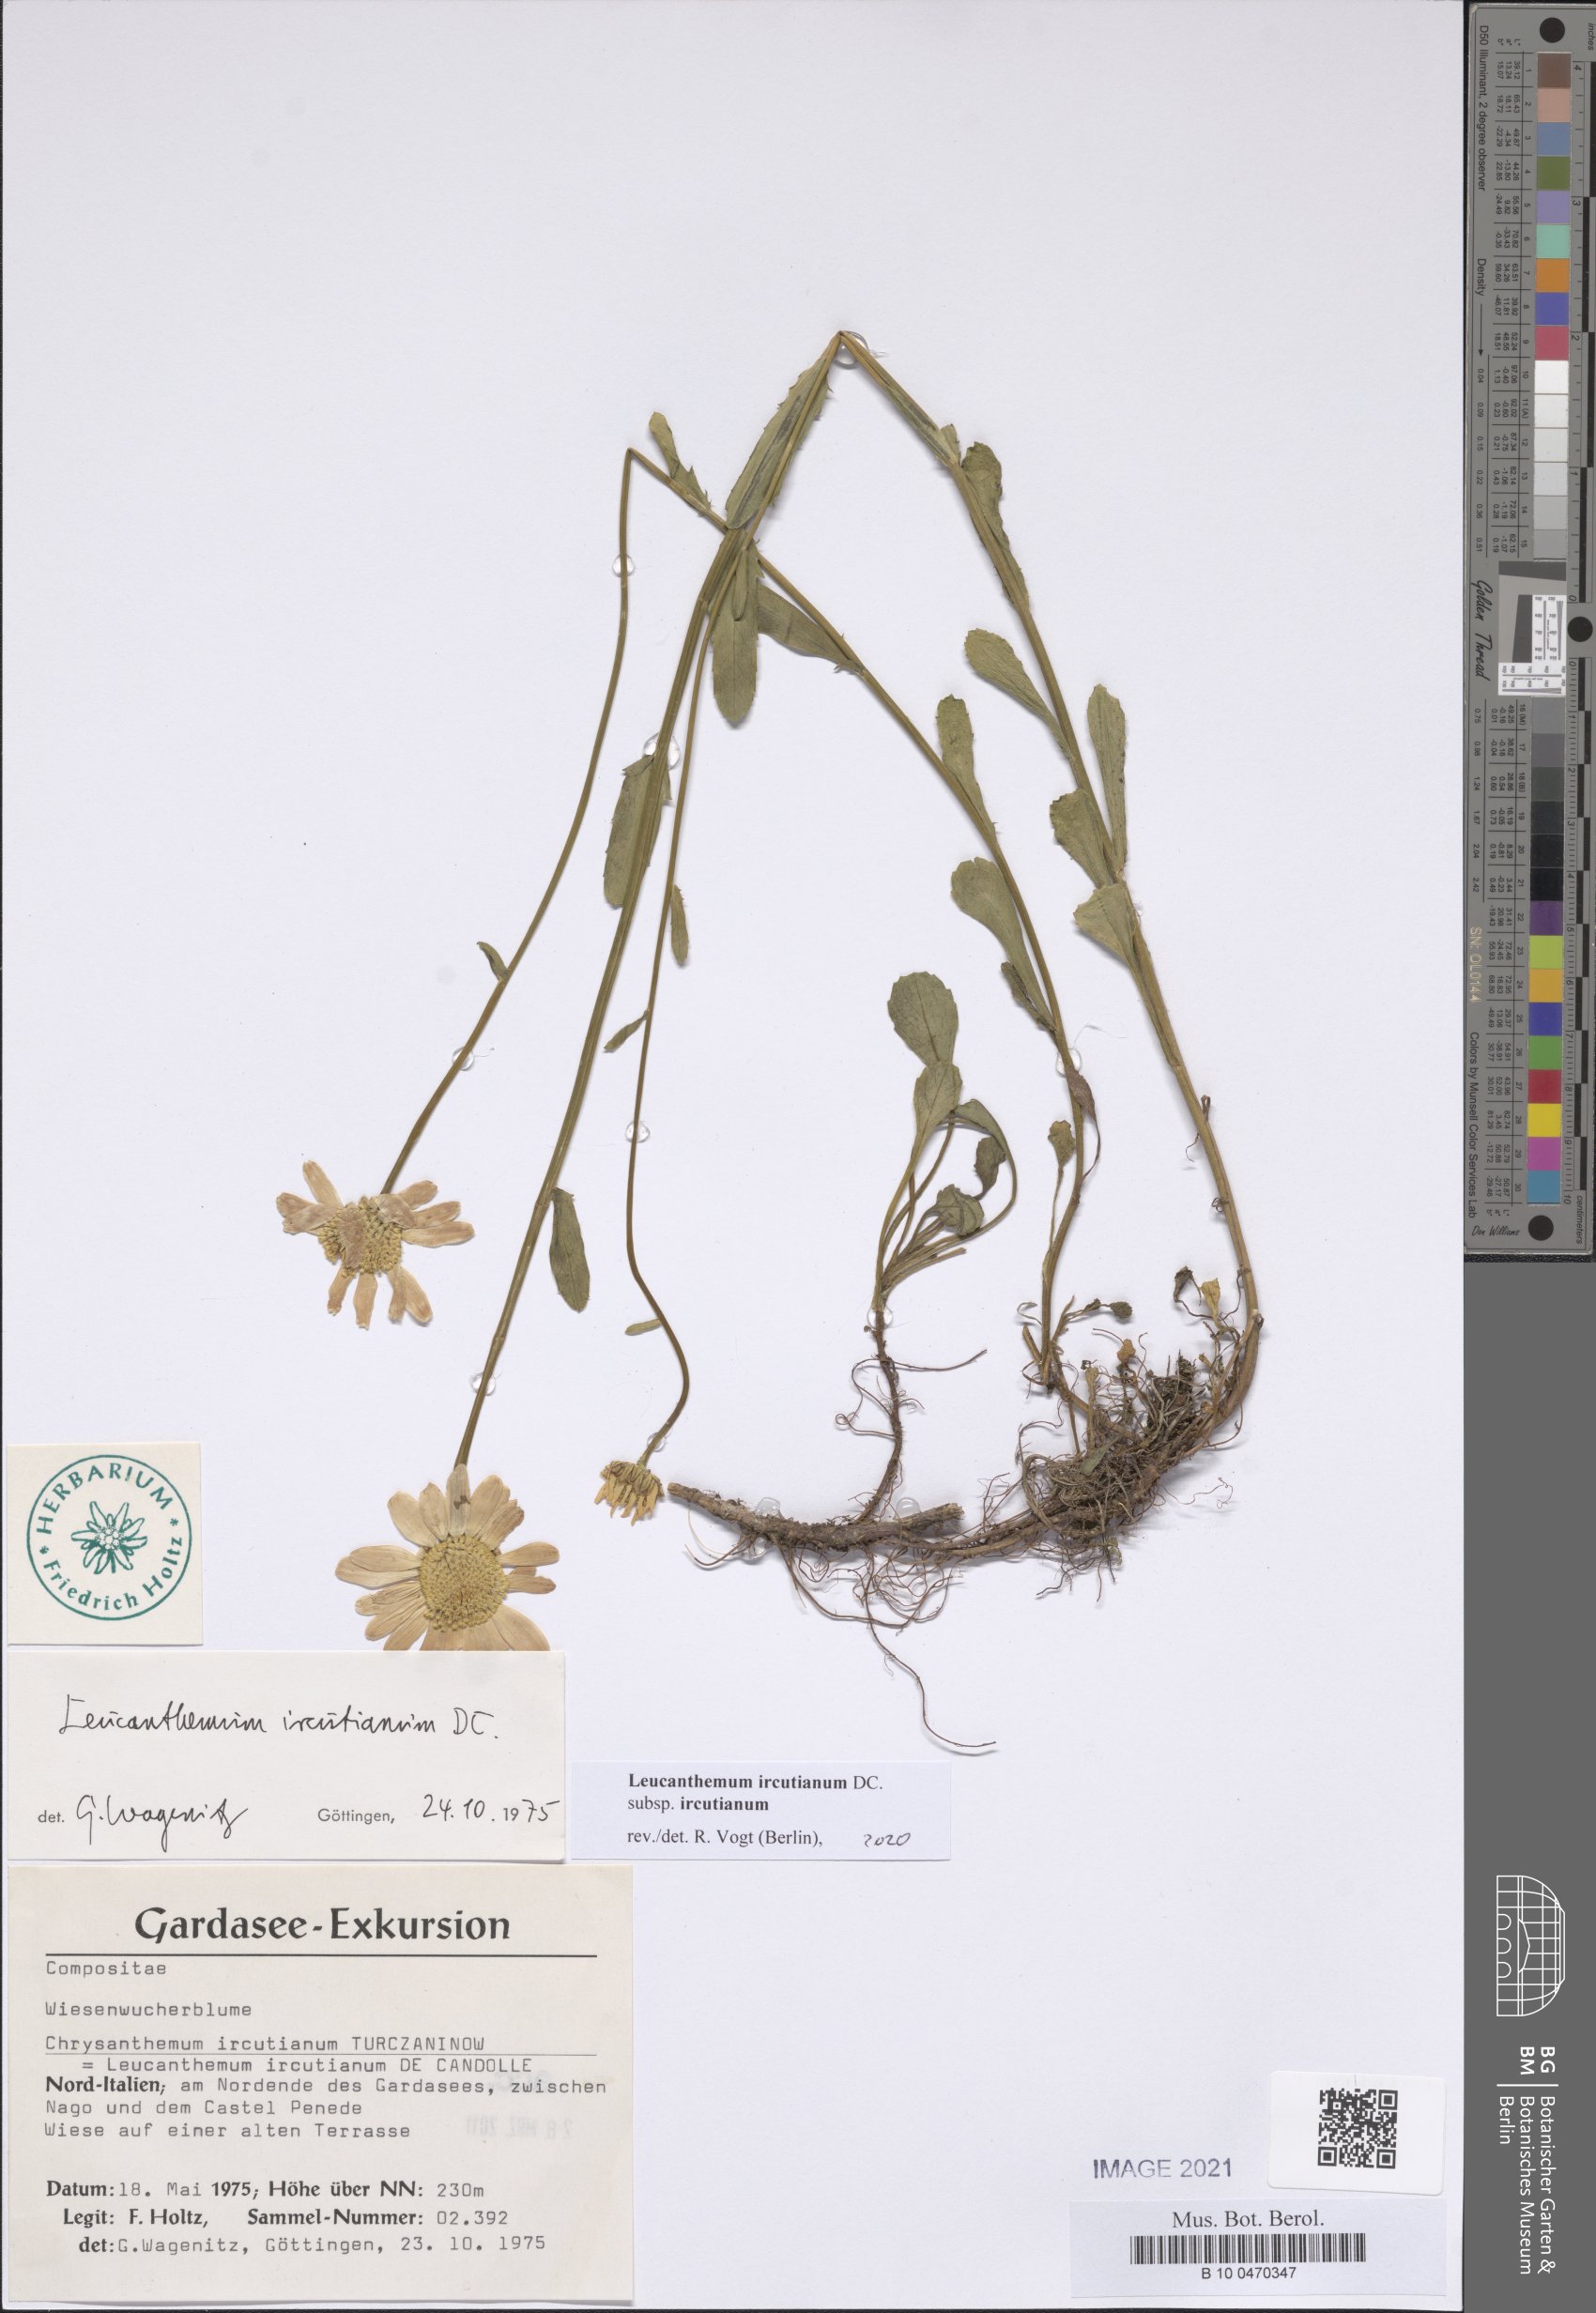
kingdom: Plantae
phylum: Tracheophyta
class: Magnoliopsida
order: Asterales
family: Asteraceae
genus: Leucanthemum
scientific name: Leucanthemum ircutianum
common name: Daisy
